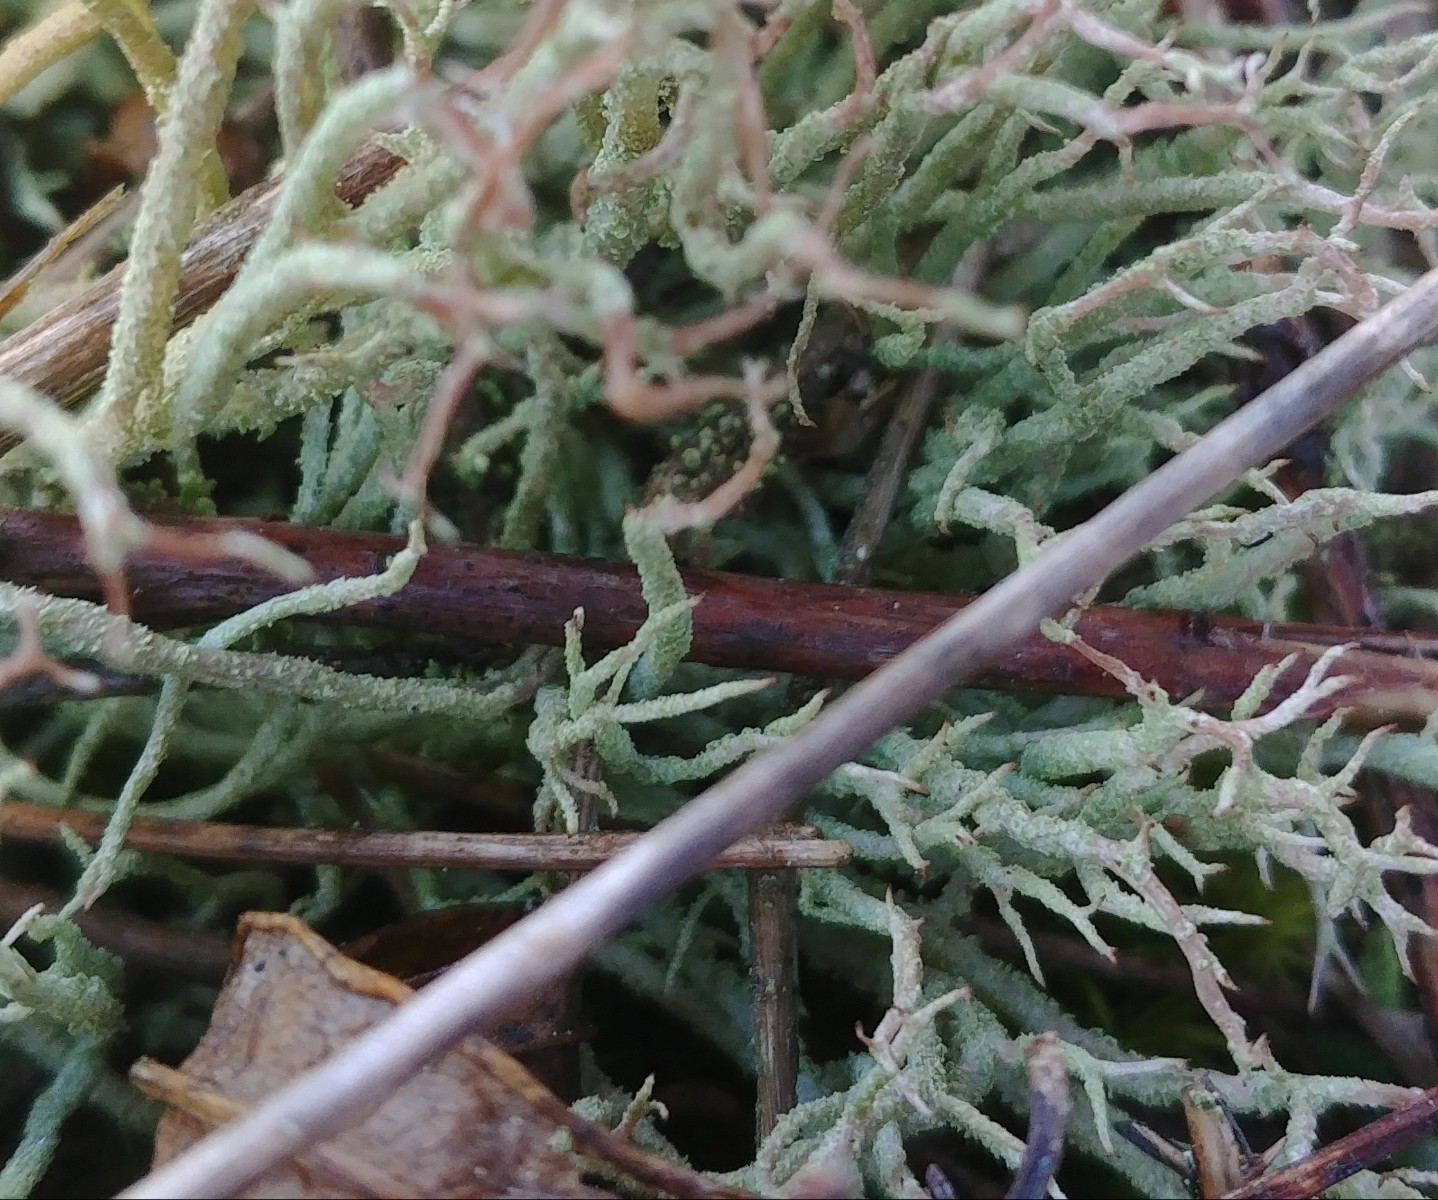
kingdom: Fungi
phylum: Ascomycota
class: Lecanoromycetes
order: Lecanorales
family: Cladoniaceae
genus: Cladonia
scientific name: Cladonia scabriuscula
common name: ru bægerlav
